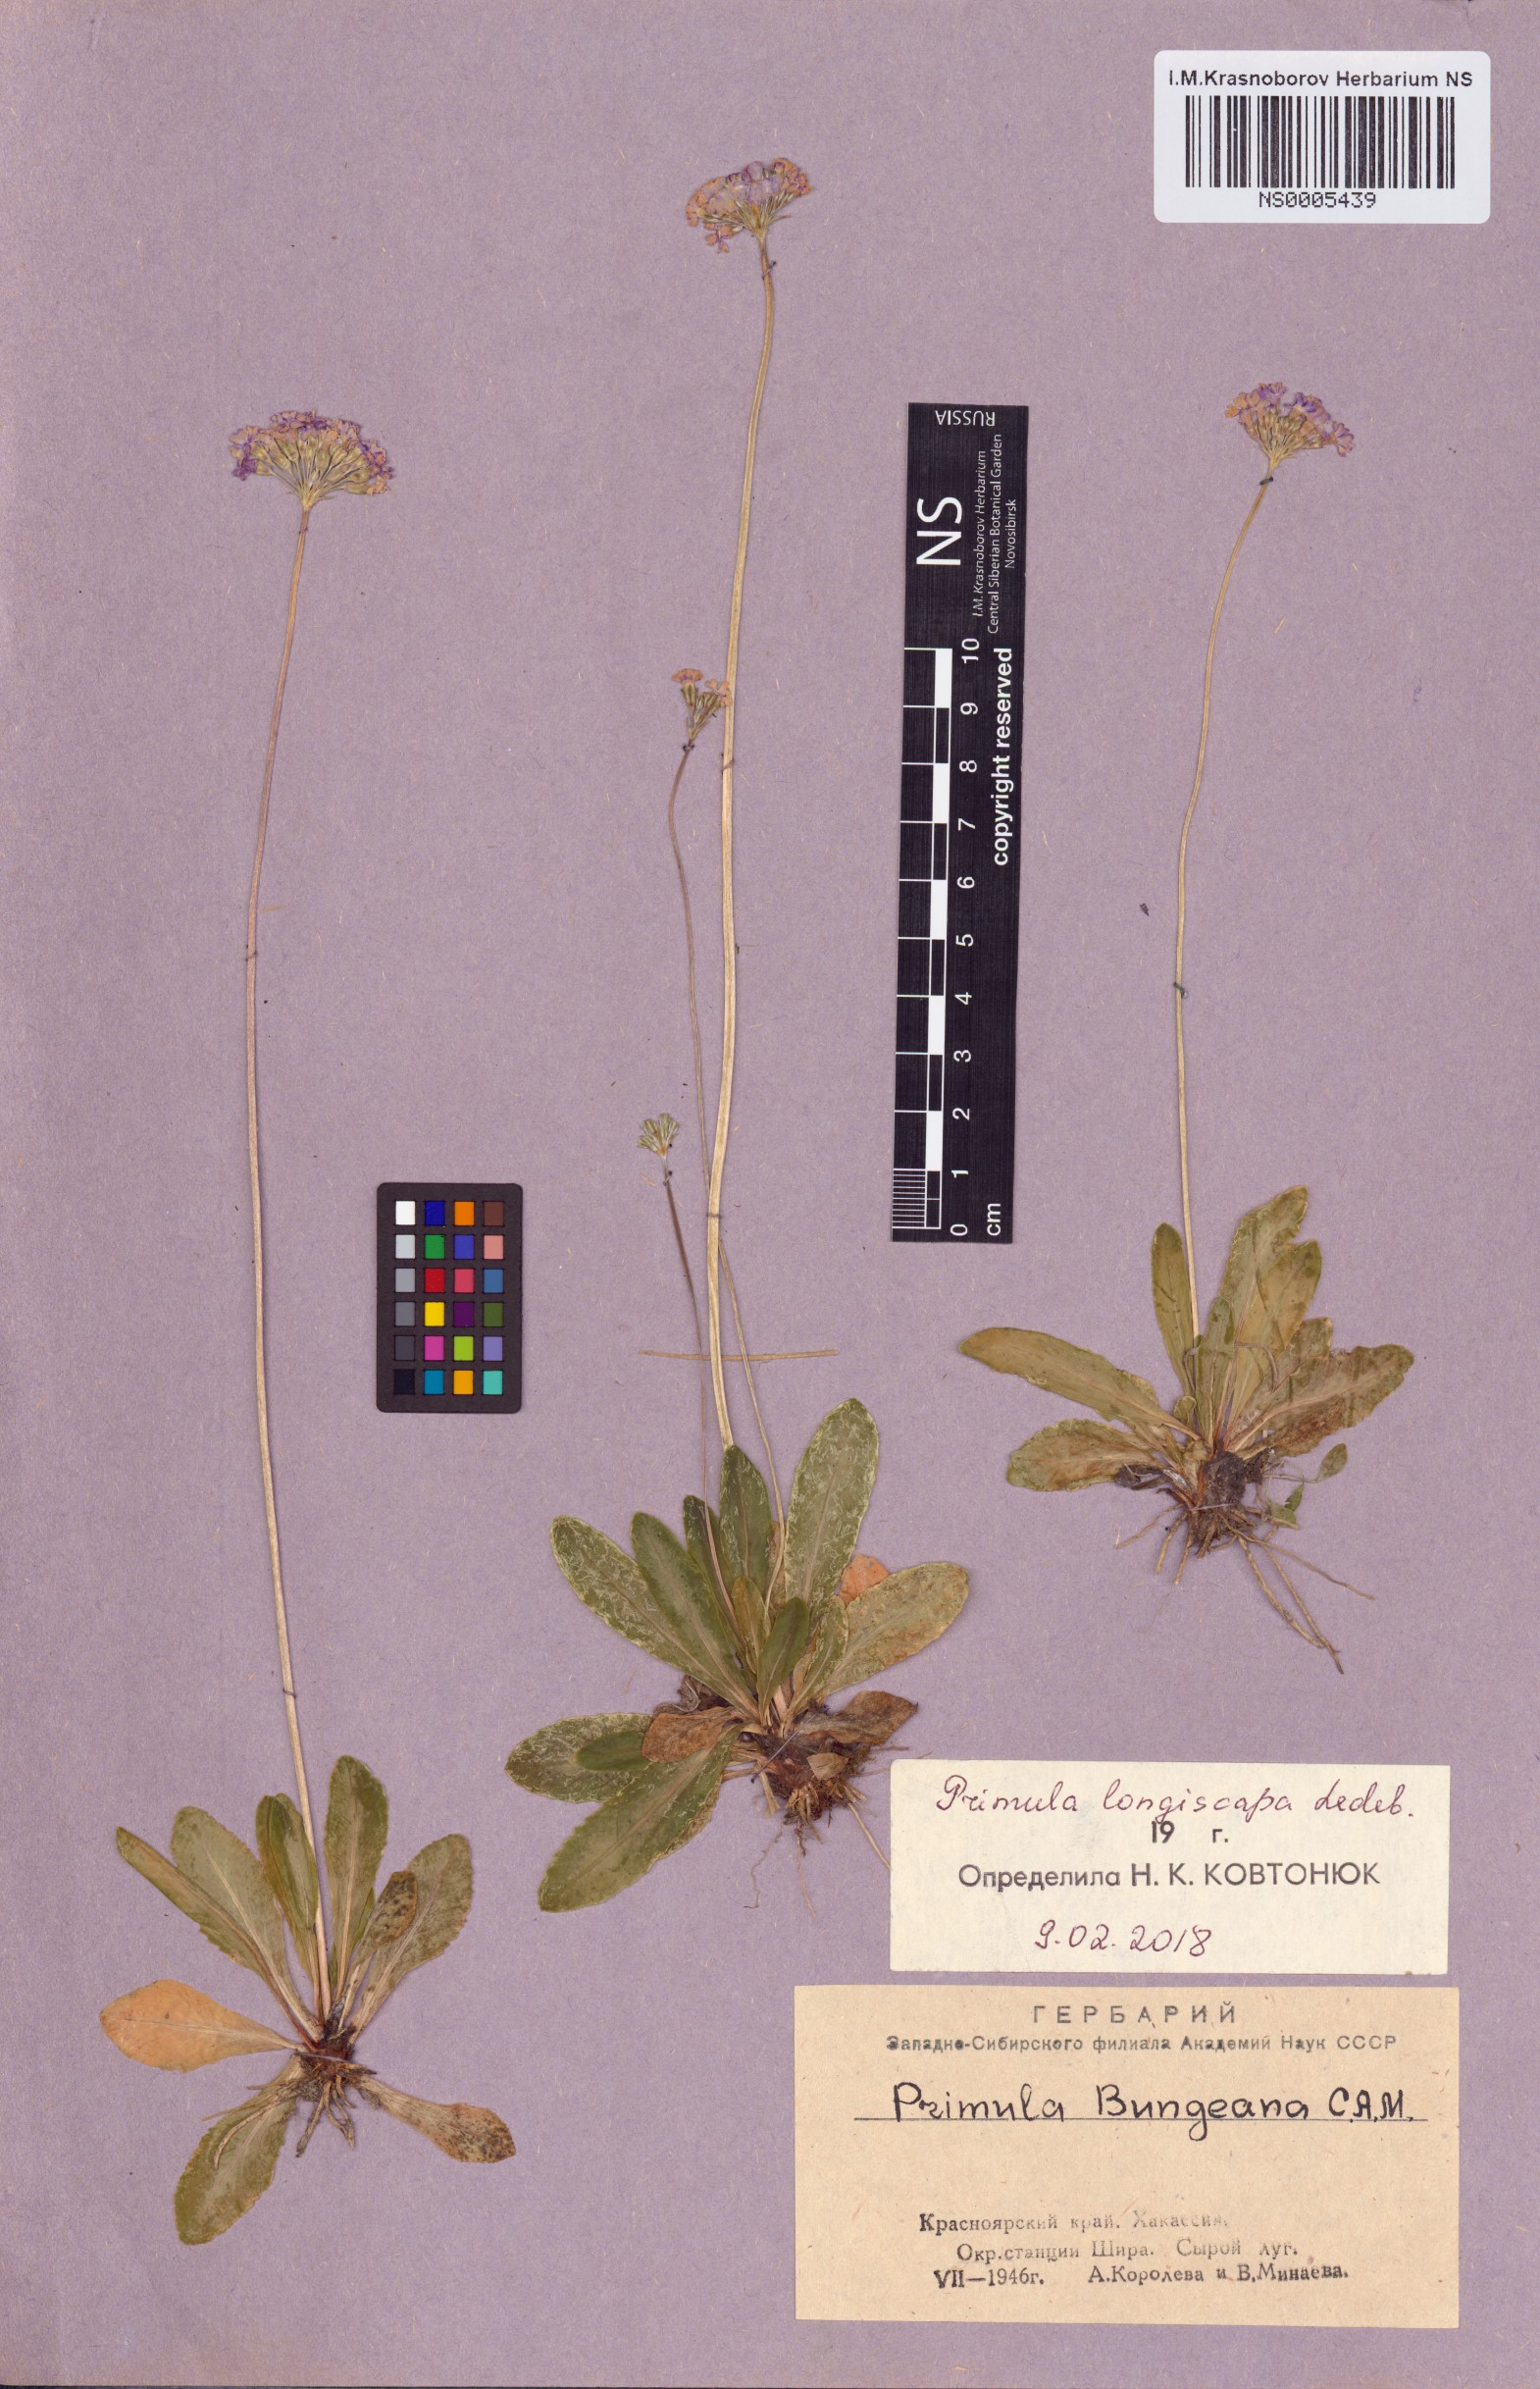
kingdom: Plantae
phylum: Tracheophyta
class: Magnoliopsida
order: Ericales
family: Primulaceae
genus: Primula
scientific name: Primula longiscapa
